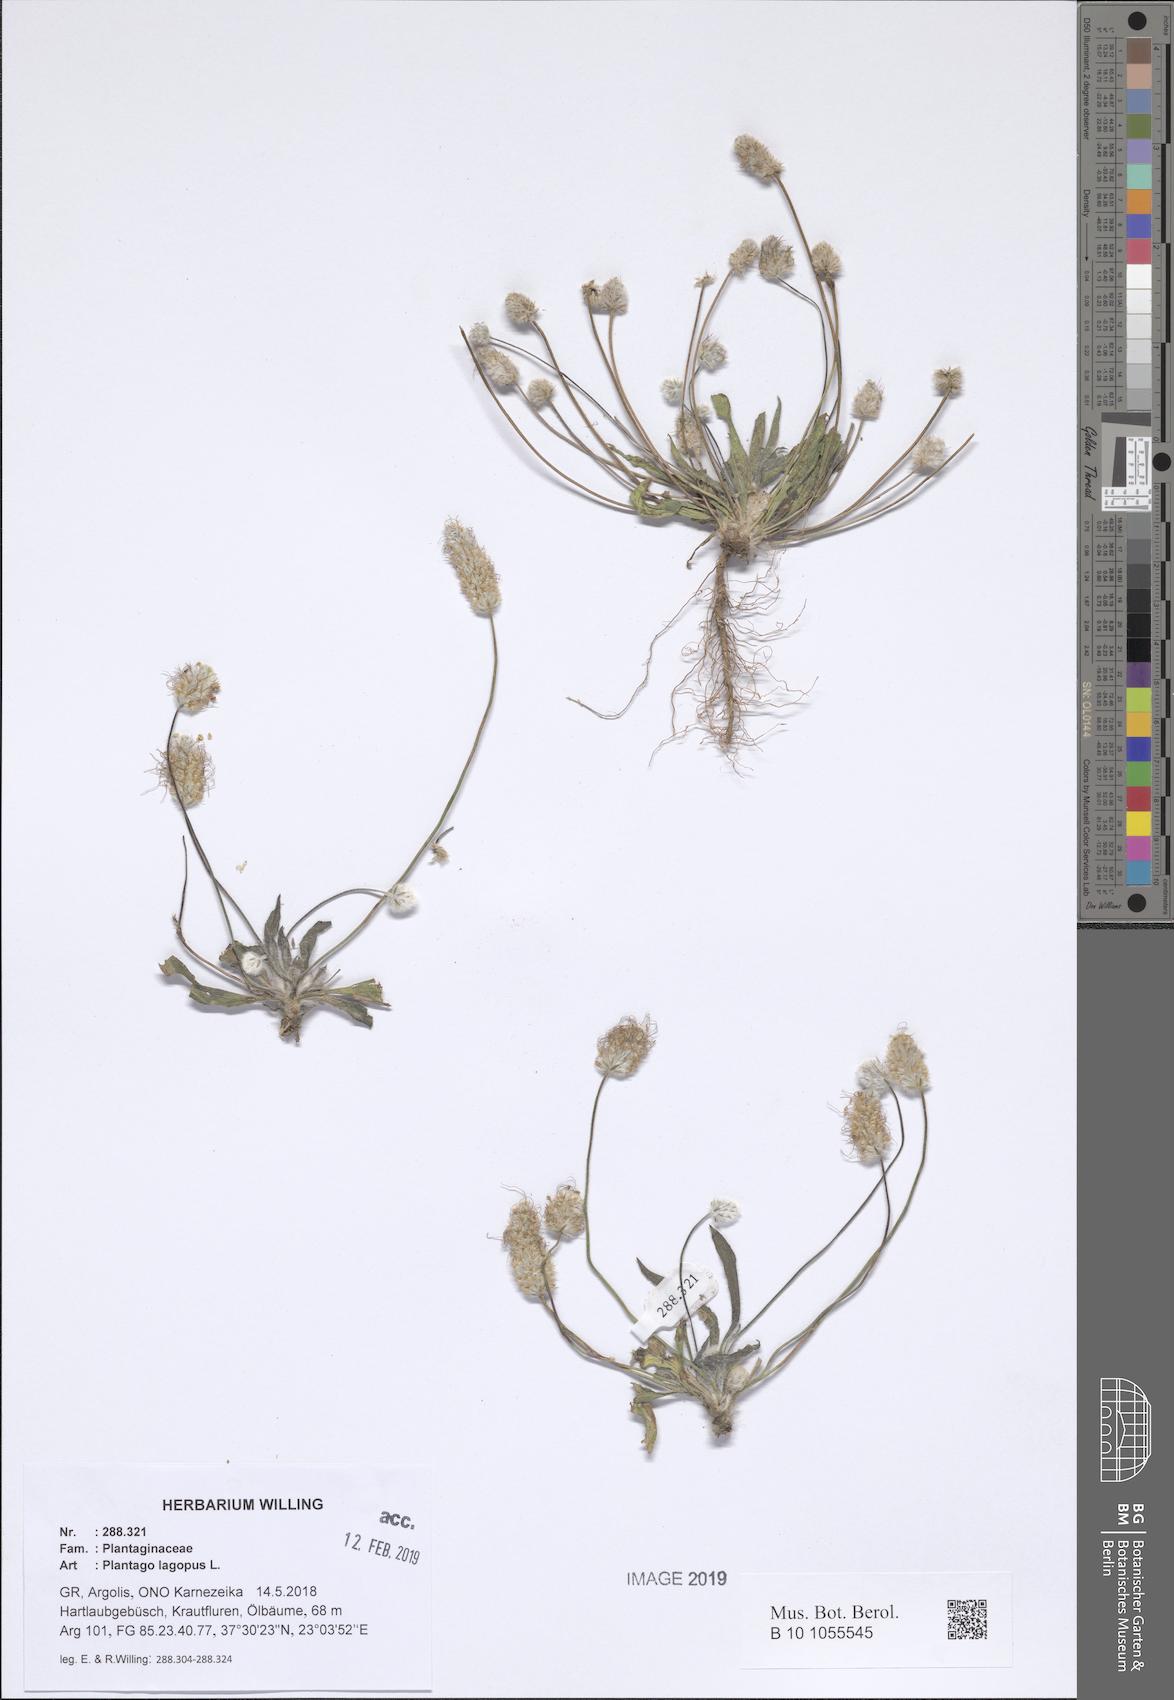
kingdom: Plantae
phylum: Tracheophyta
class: Magnoliopsida
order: Lamiales
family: Plantaginaceae
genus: Plantago
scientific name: Plantago lagopus
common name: Hare-foot plantain
